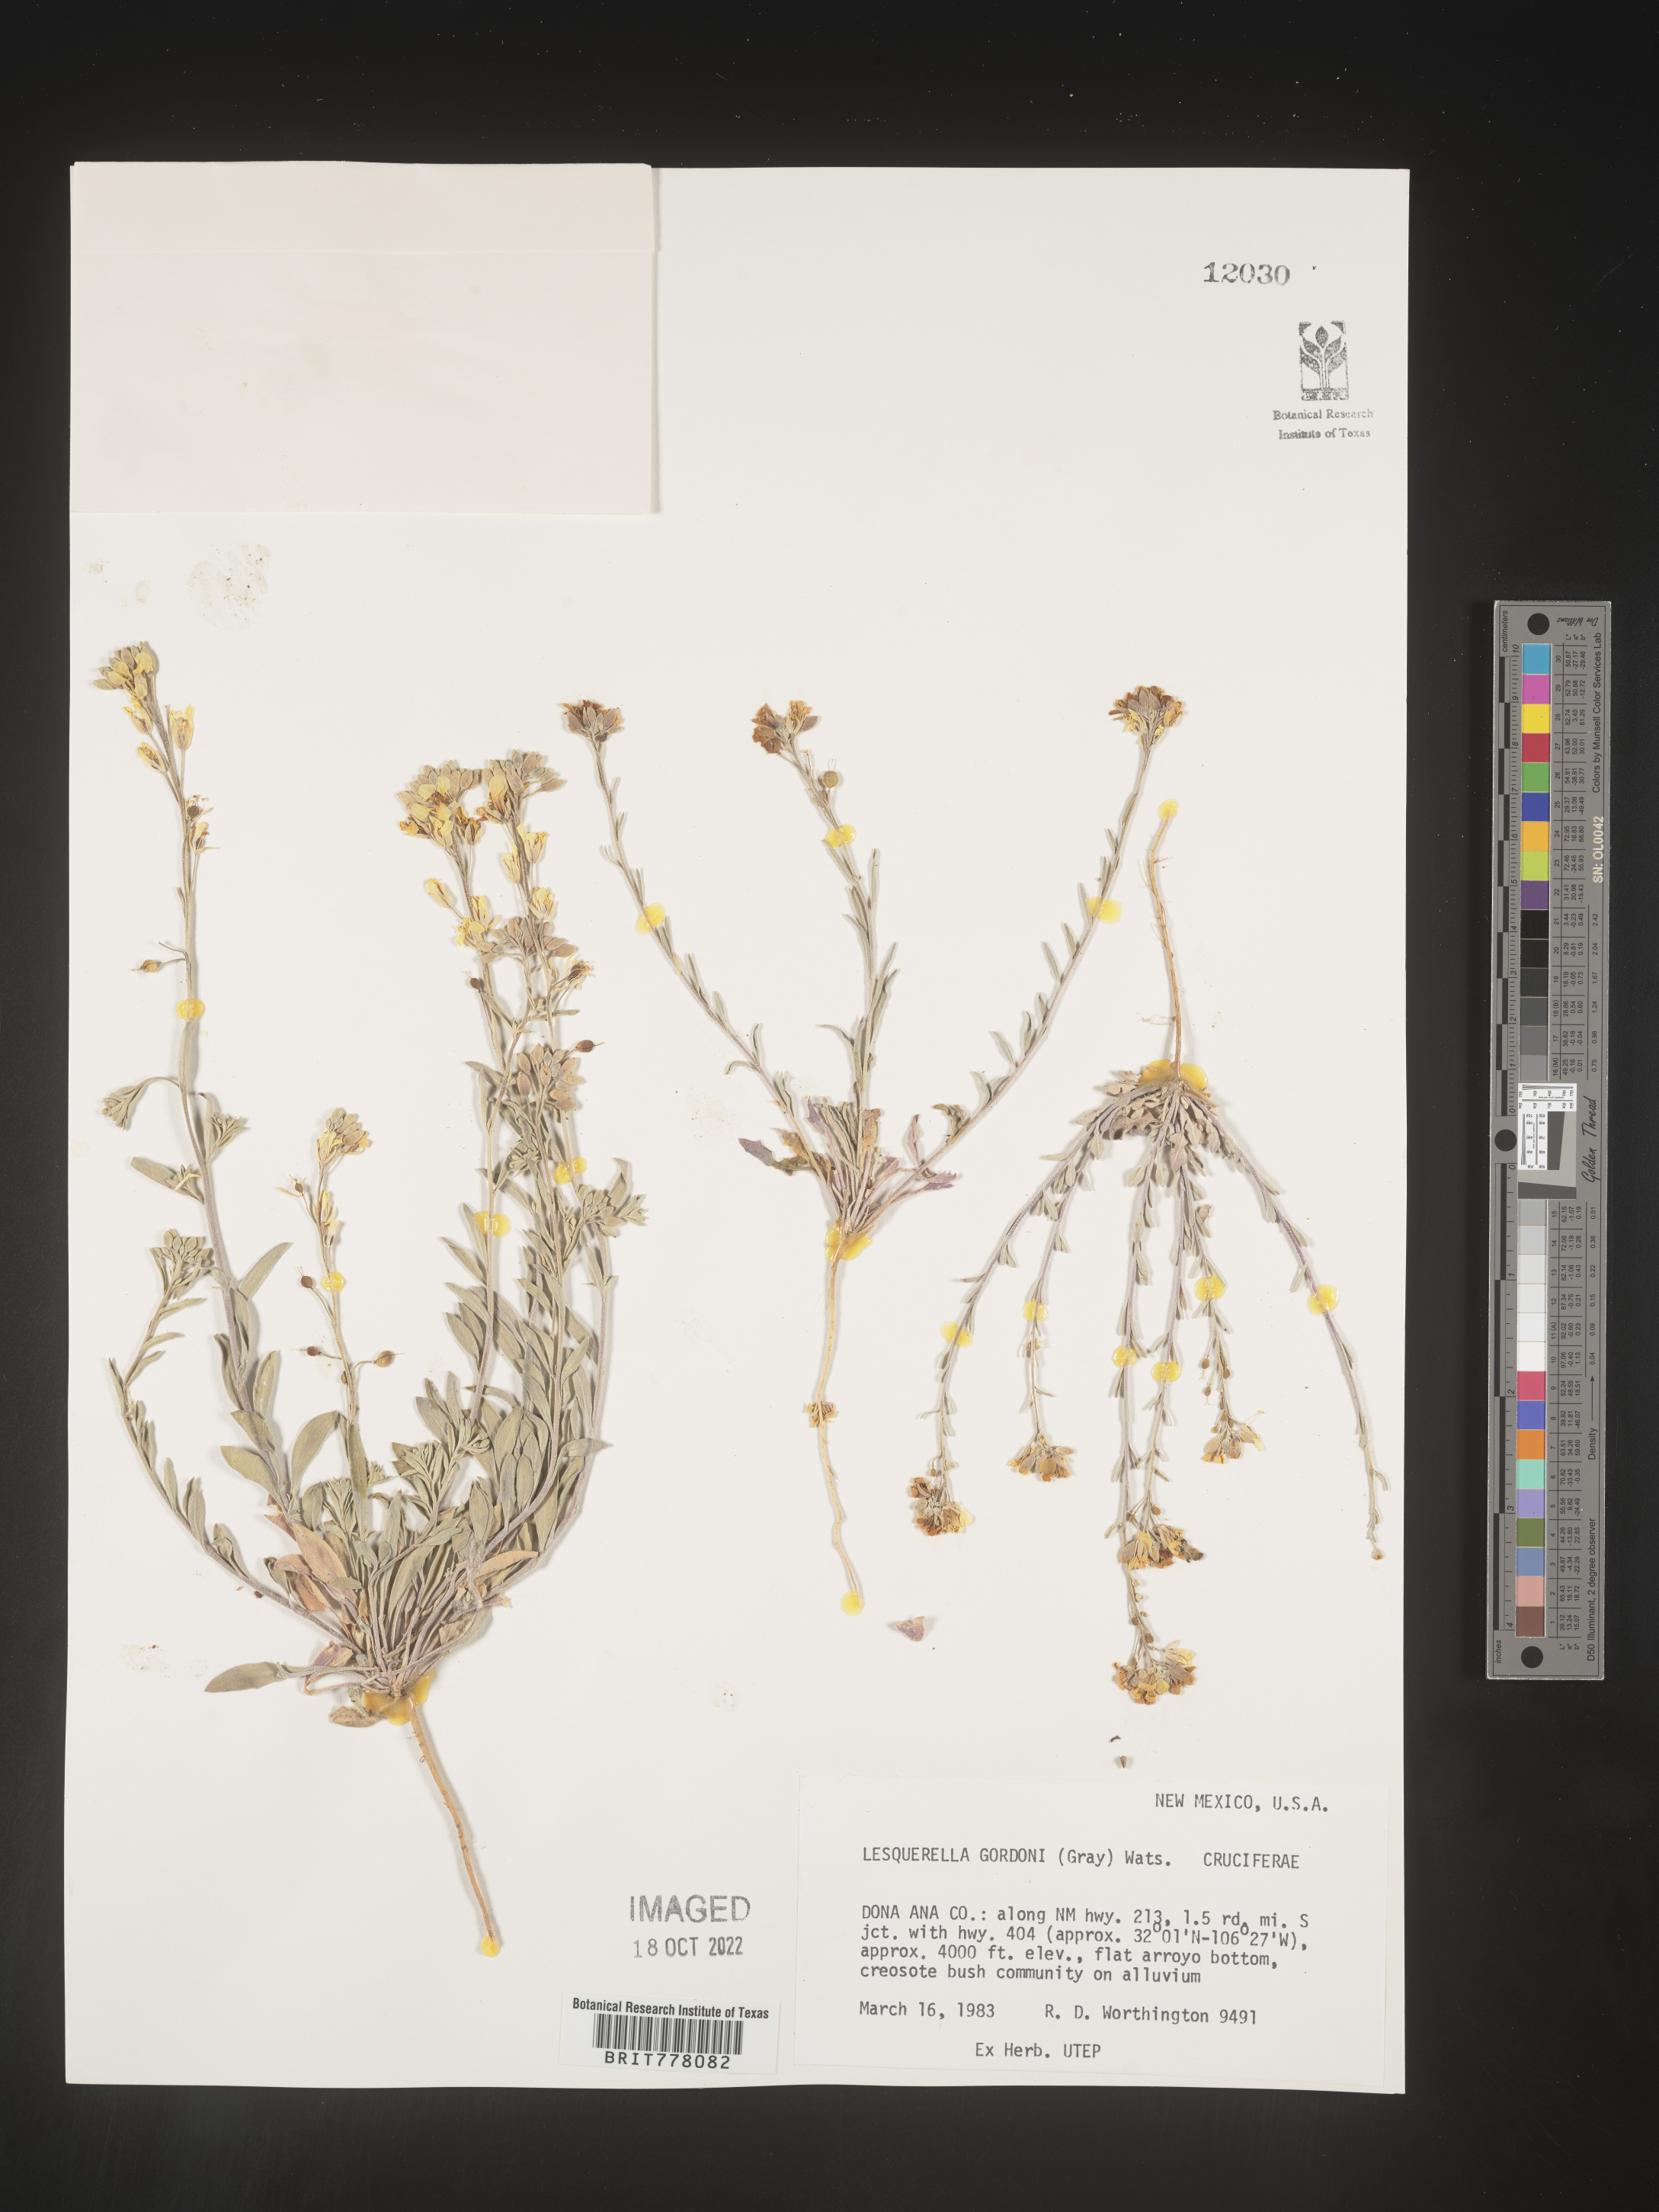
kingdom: Chromista
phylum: Cercozoa
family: Psammonobiotidae
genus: Lesquerella
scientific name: Lesquerella
